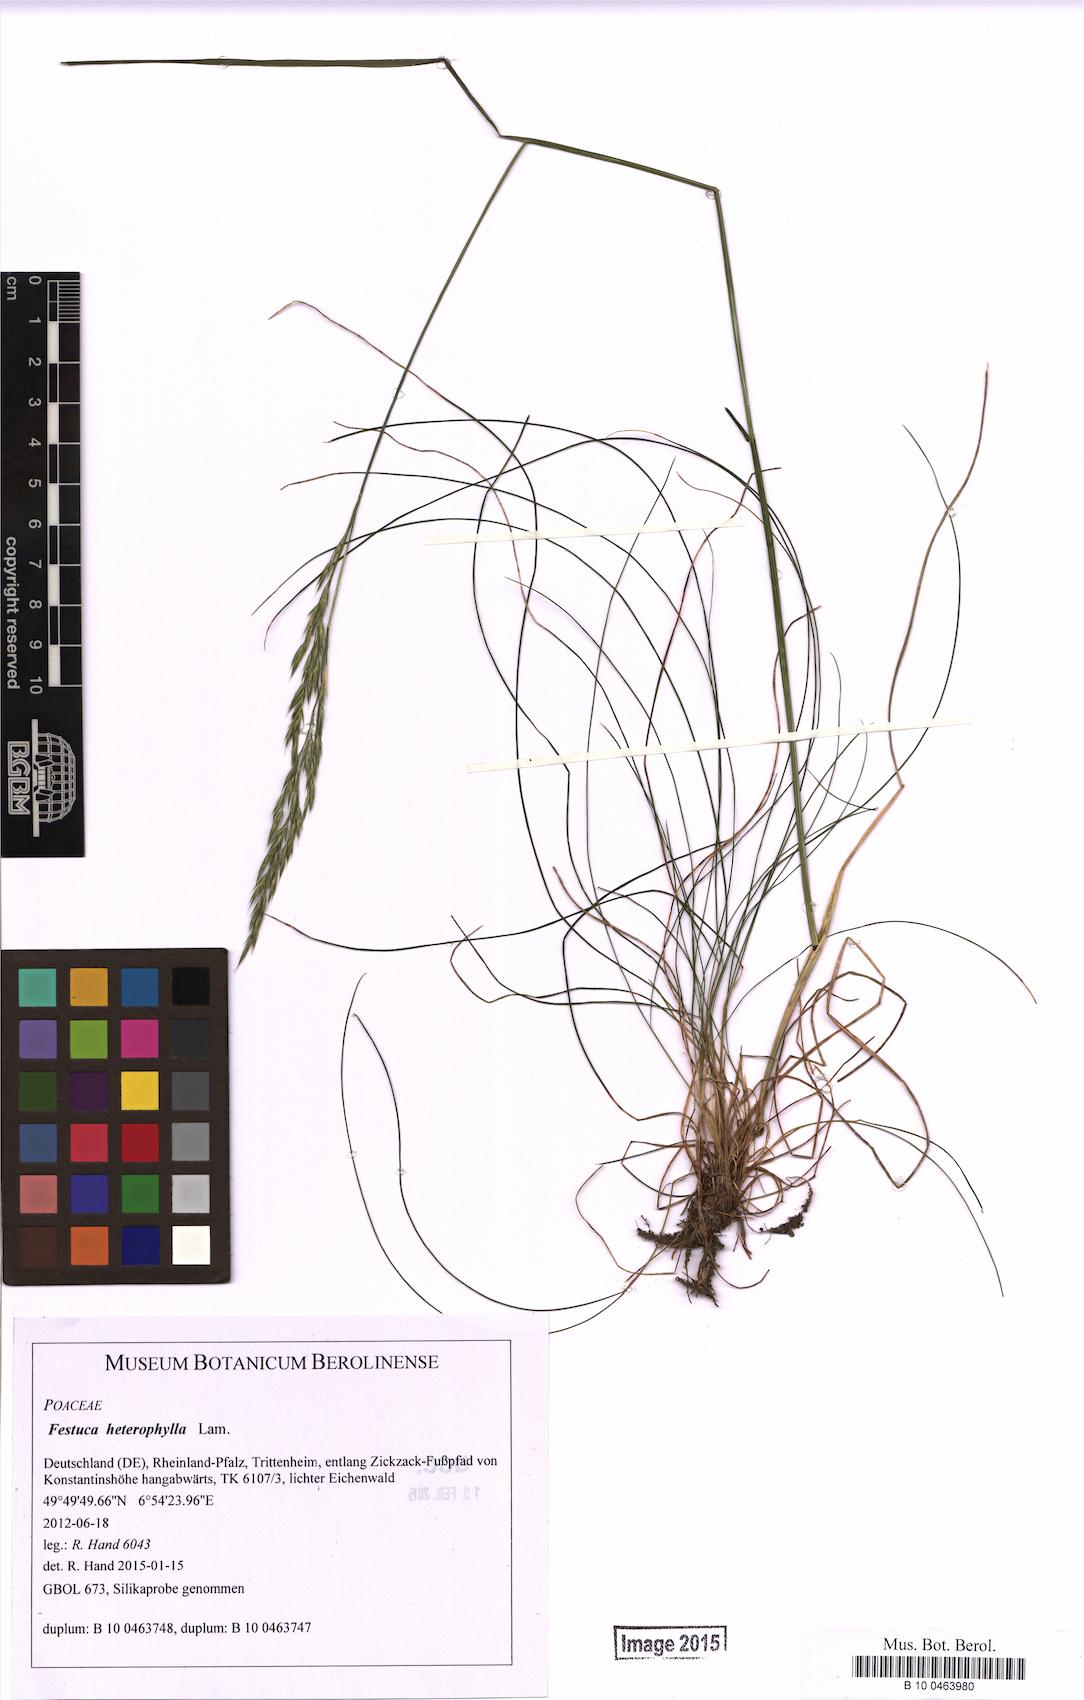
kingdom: Plantae
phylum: Tracheophyta
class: Liliopsida
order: Poales
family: Poaceae
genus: Festuca
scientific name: Festuca heterophylla
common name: Various-leaved fescue
